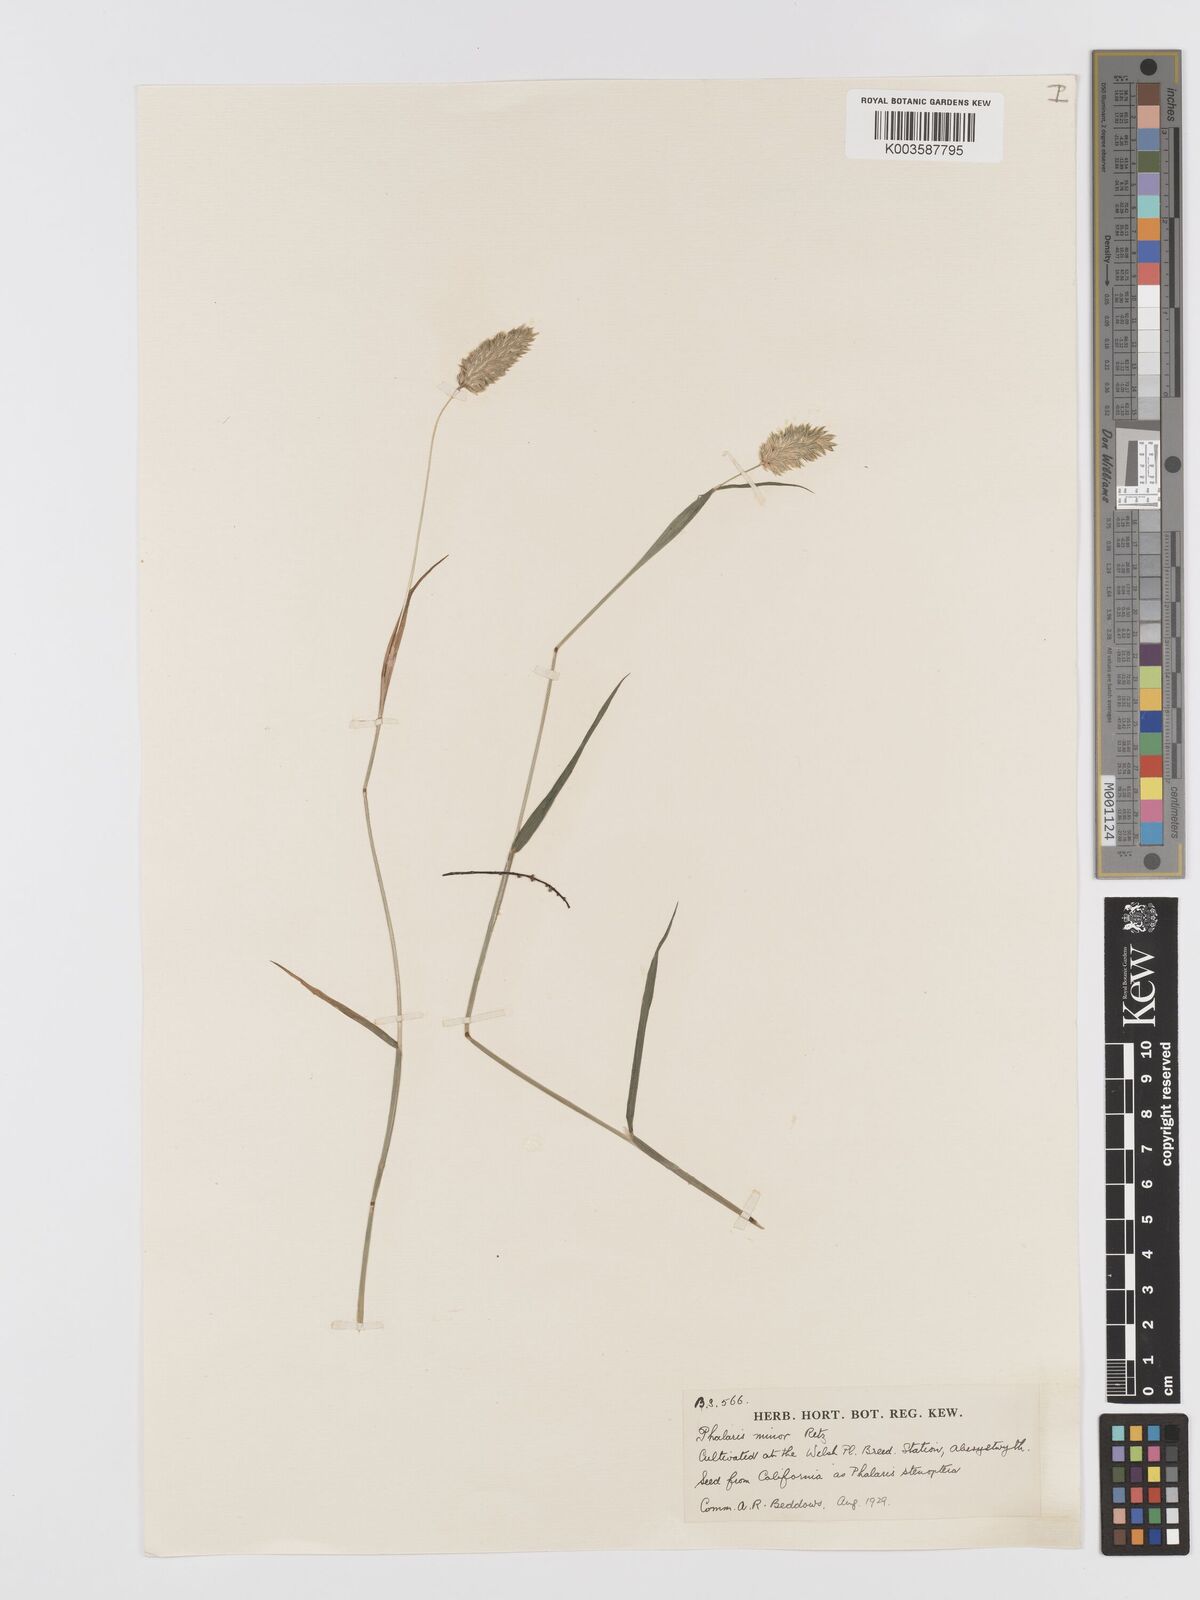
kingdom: Plantae
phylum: Tracheophyta
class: Liliopsida
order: Poales
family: Poaceae
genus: Phalaris
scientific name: Phalaris minor
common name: Littleseed canarygrass
